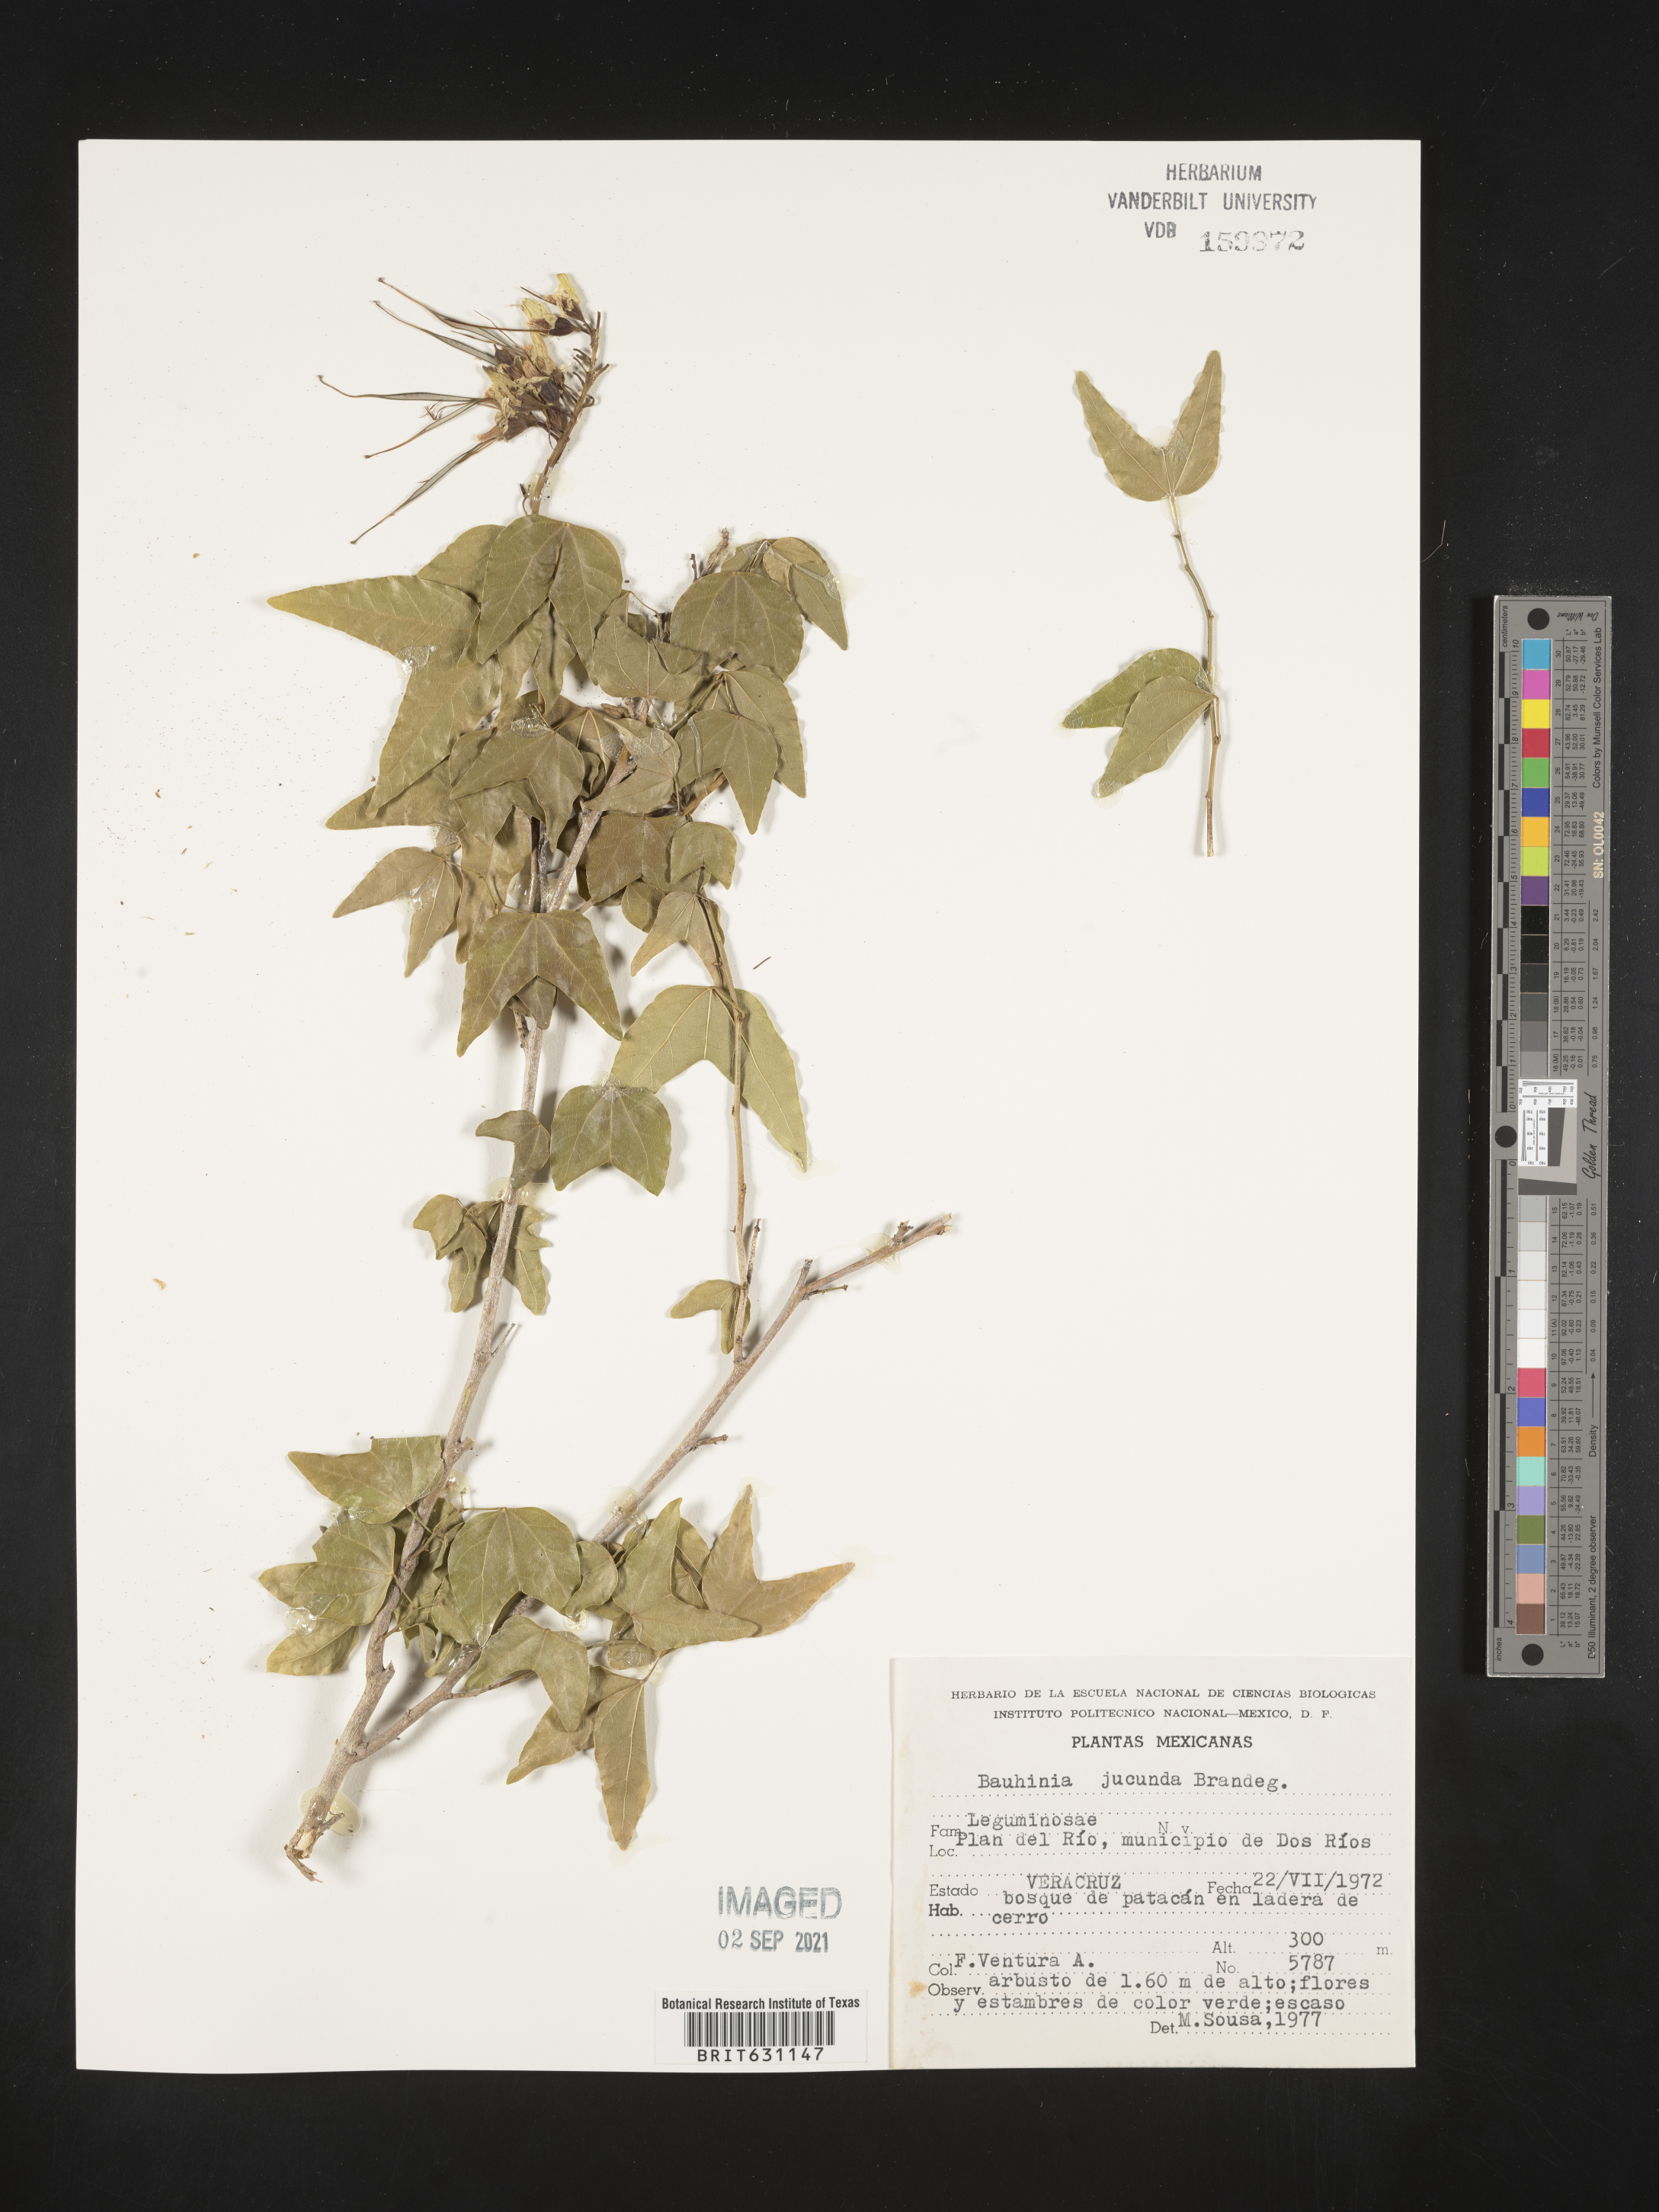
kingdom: Plantae
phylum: Tracheophyta
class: Magnoliopsida
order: Fabales
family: Fabaceae
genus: Bauhinia
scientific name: Bauhinia
